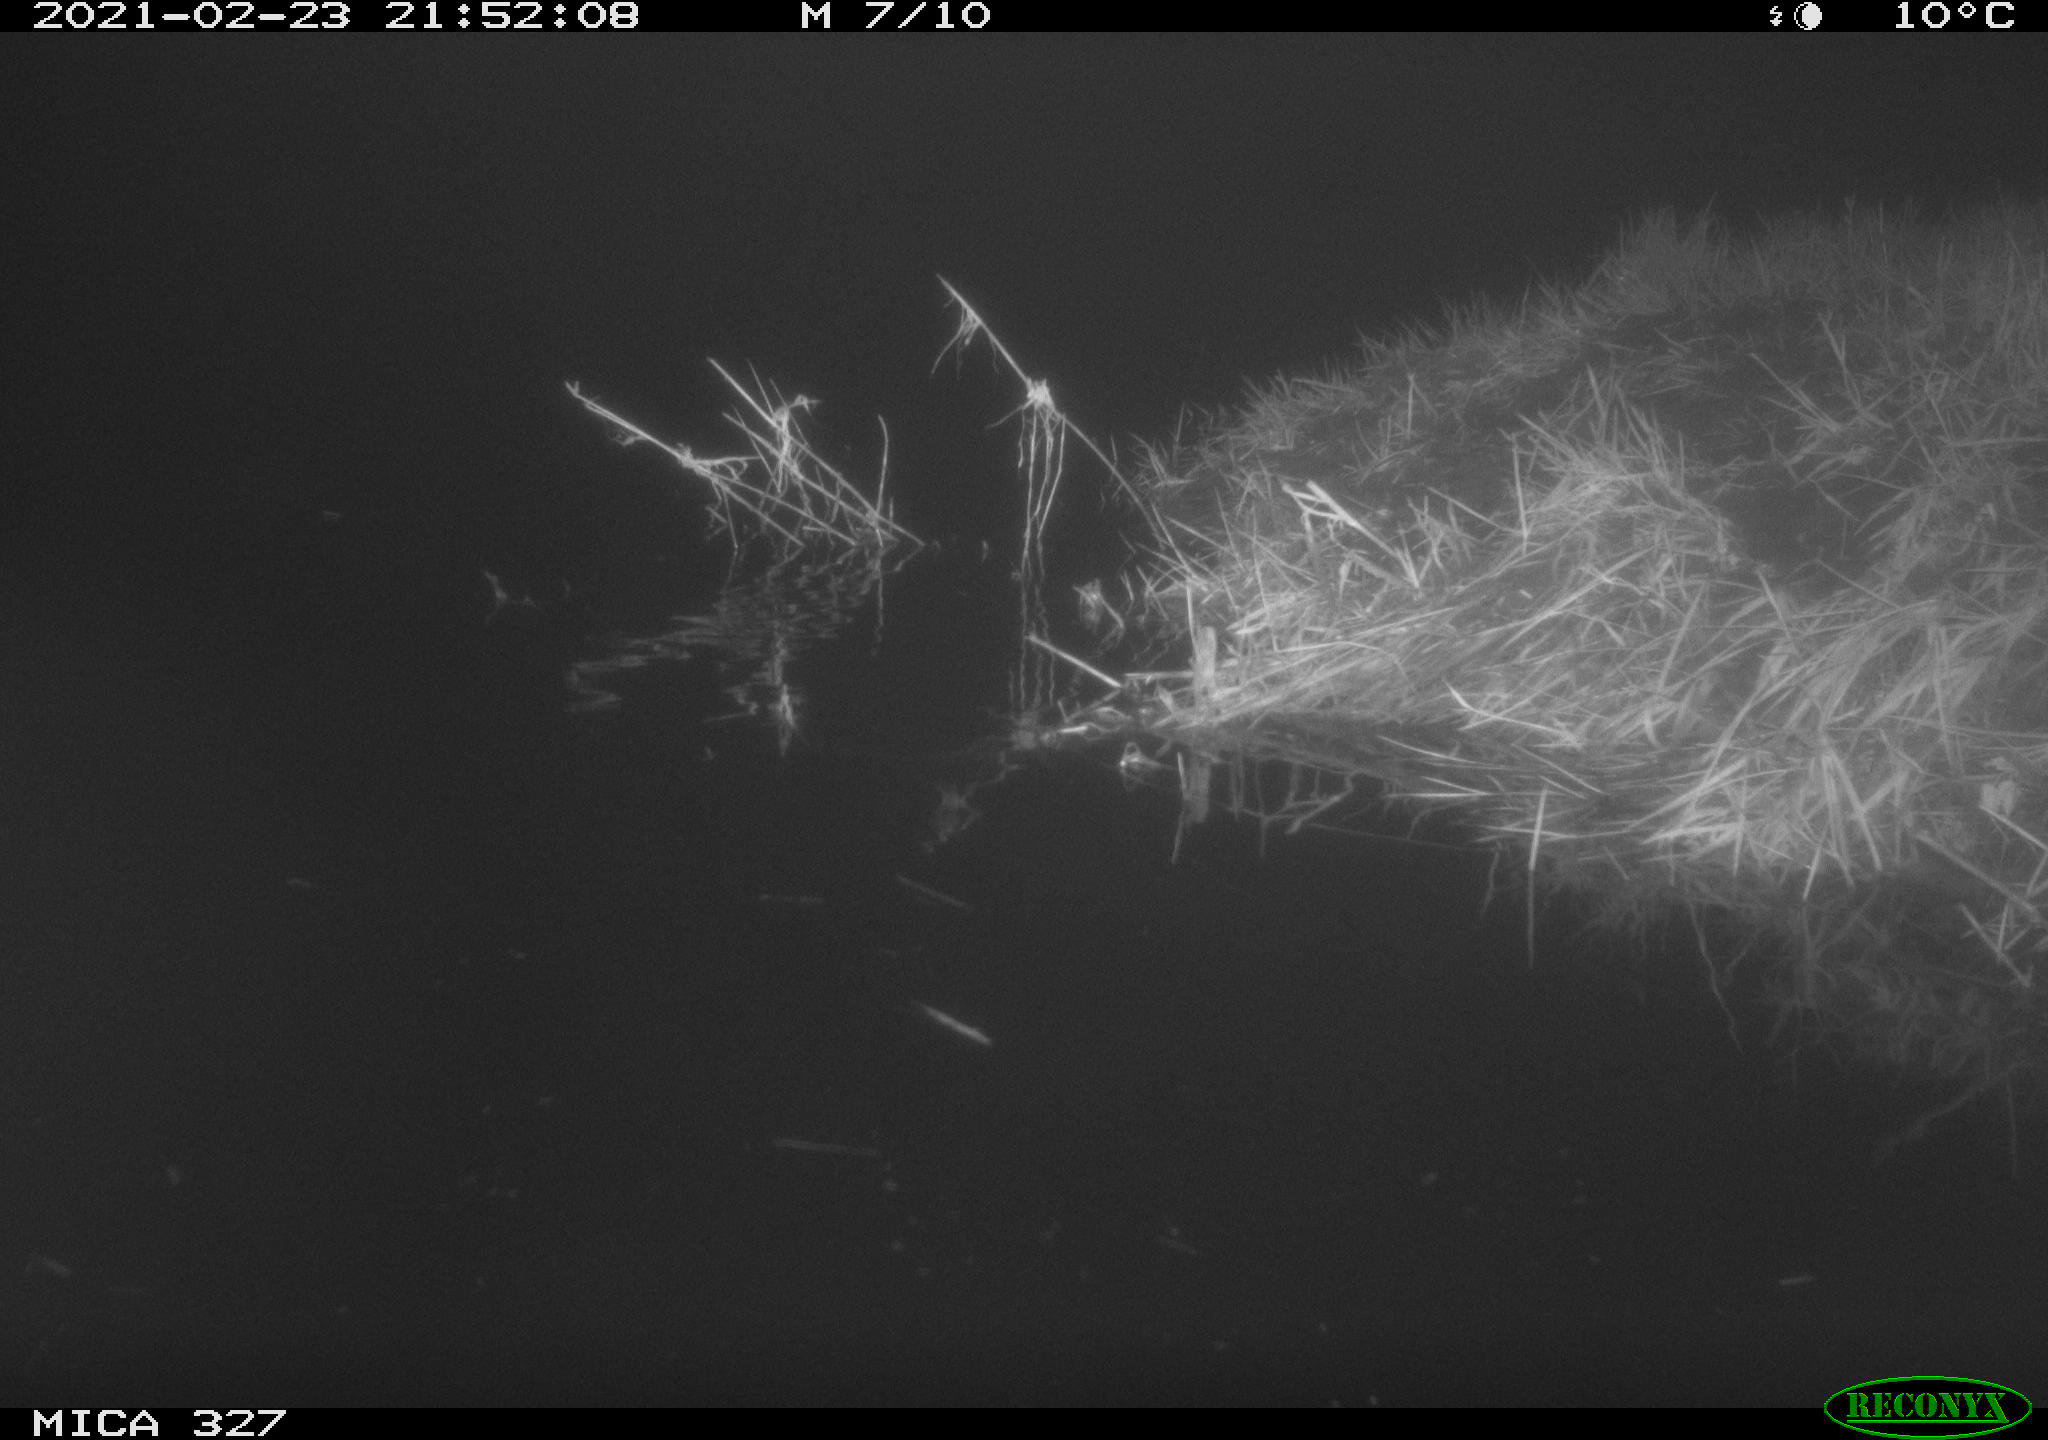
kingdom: Animalia
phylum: Chordata
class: Mammalia
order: Rodentia
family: Cricetidae
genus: Ondatra
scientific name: Ondatra zibethicus
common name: Muskrat
